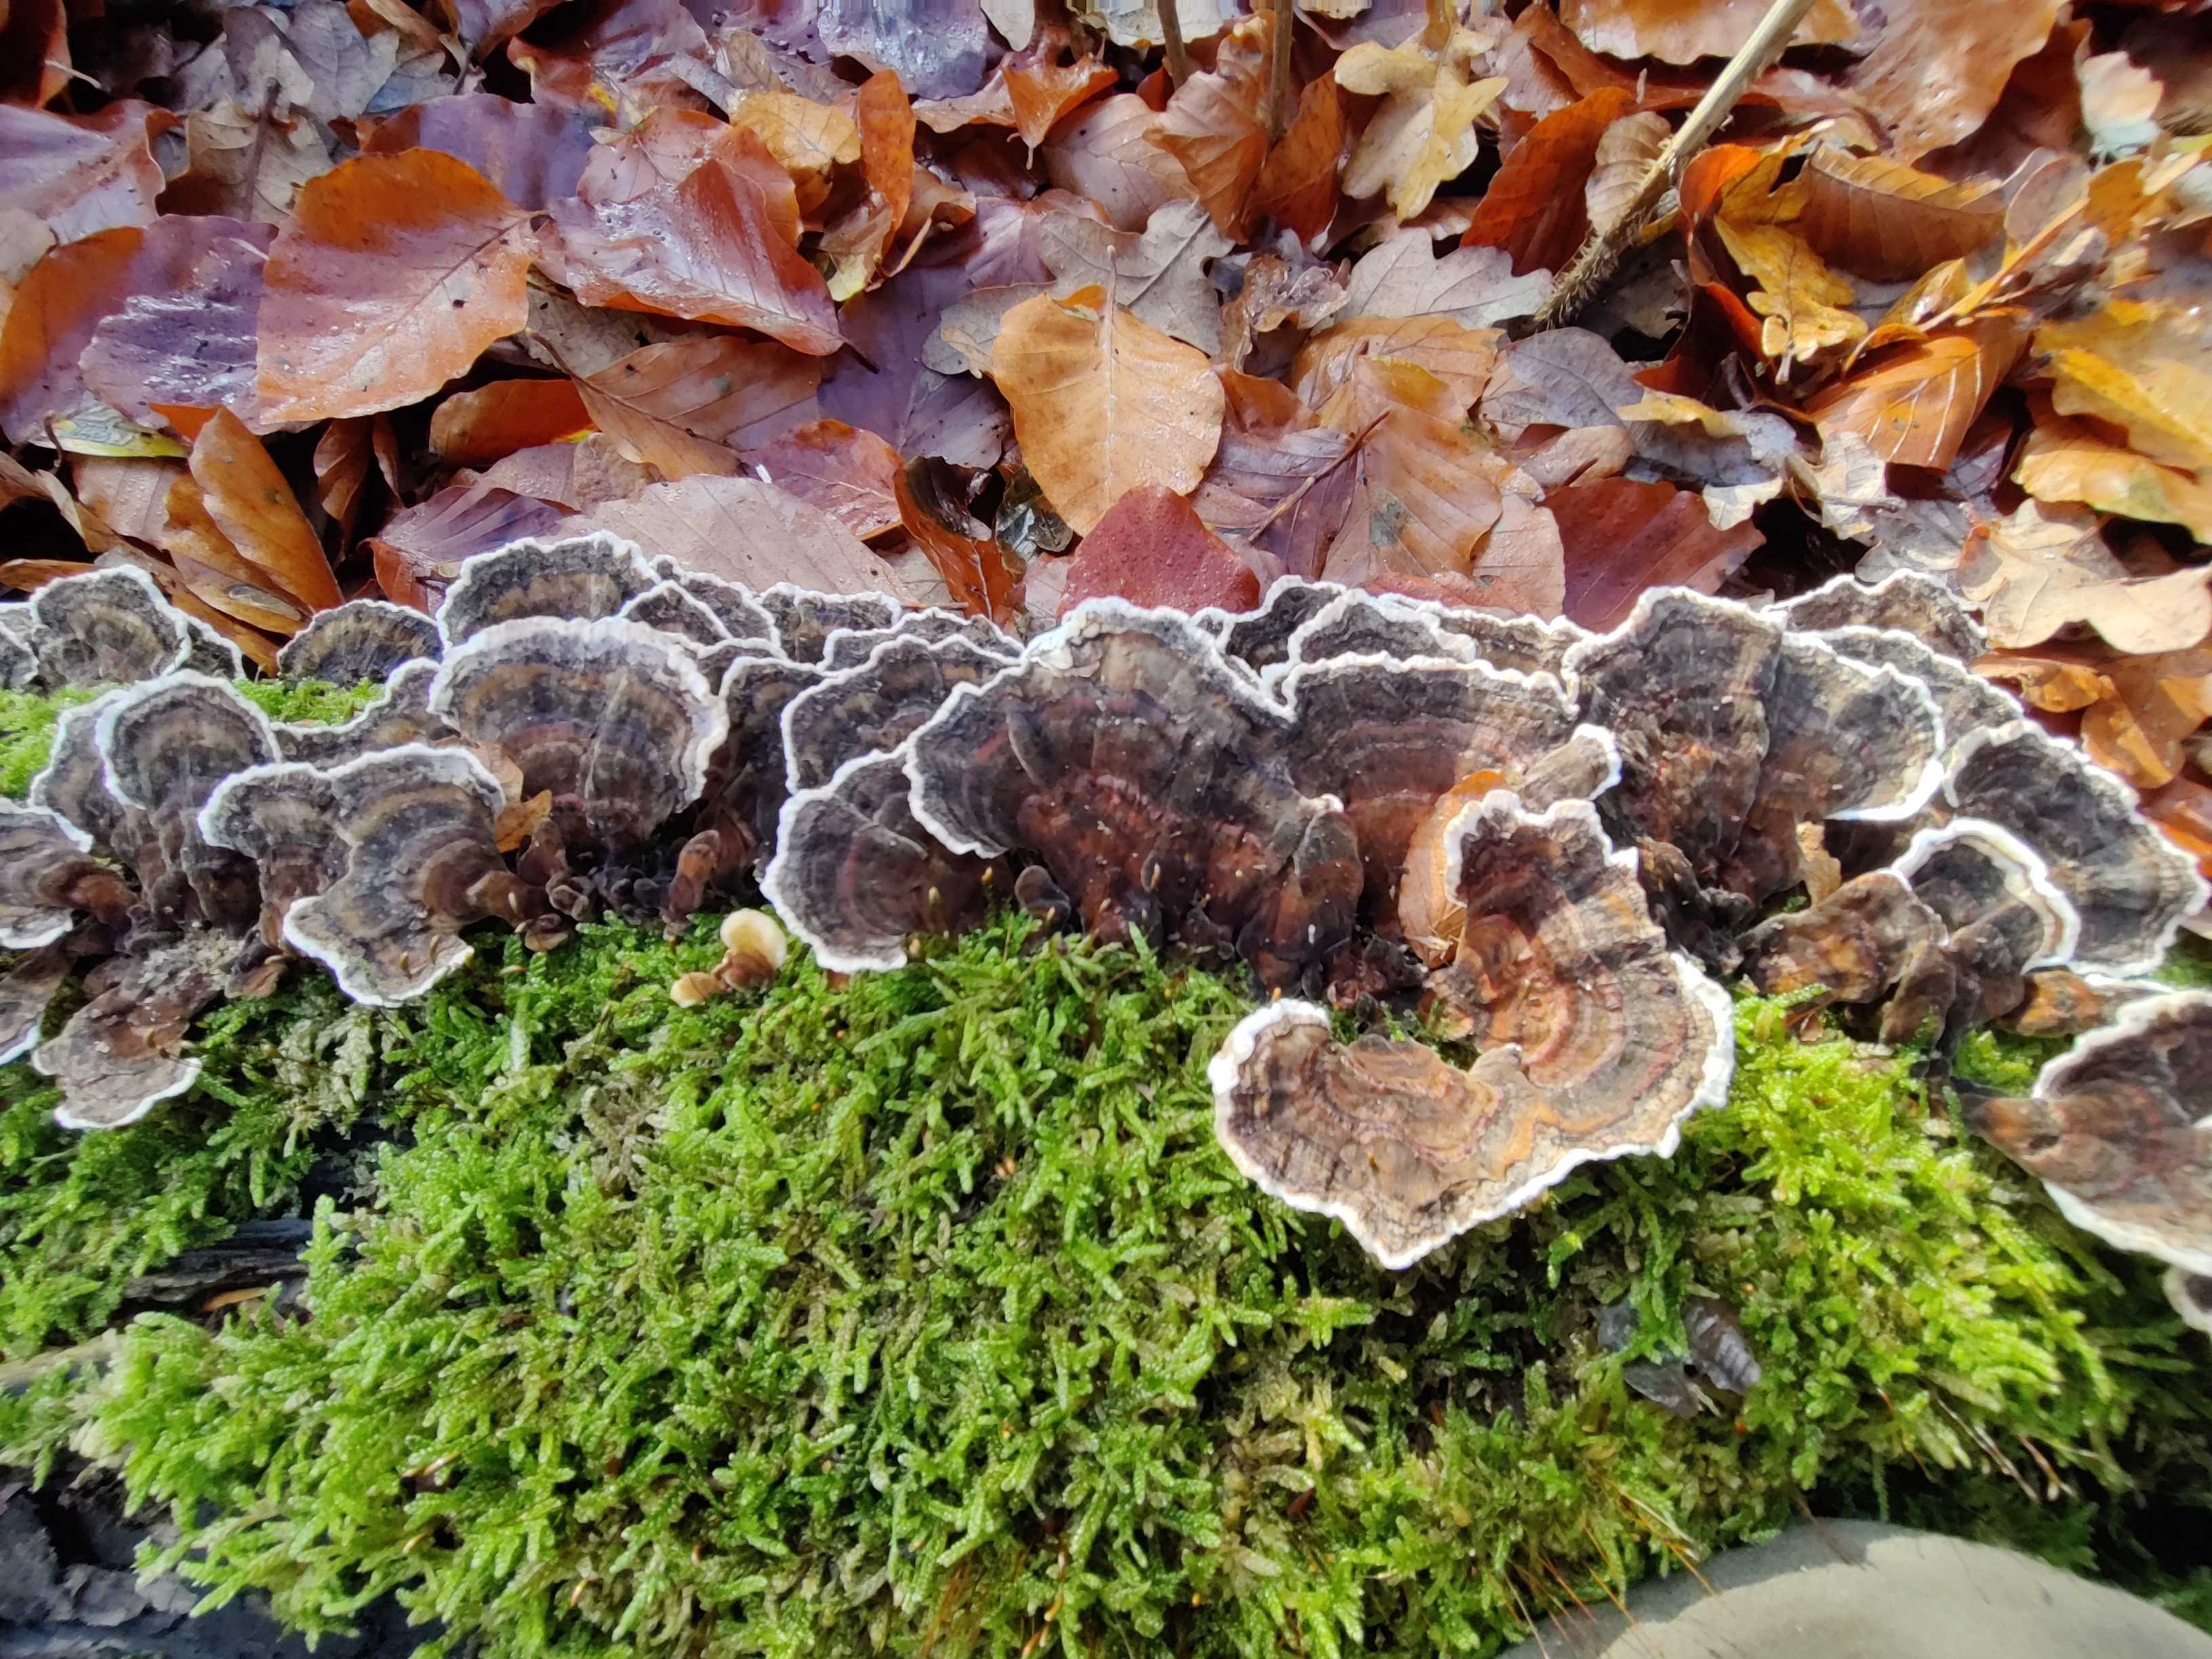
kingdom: Fungi
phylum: Basidiomycota
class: Agaricomycetes
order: Polyporales
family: Polyporaceae
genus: Trametes
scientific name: Trametes versicolor
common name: broget læderporesvamp
